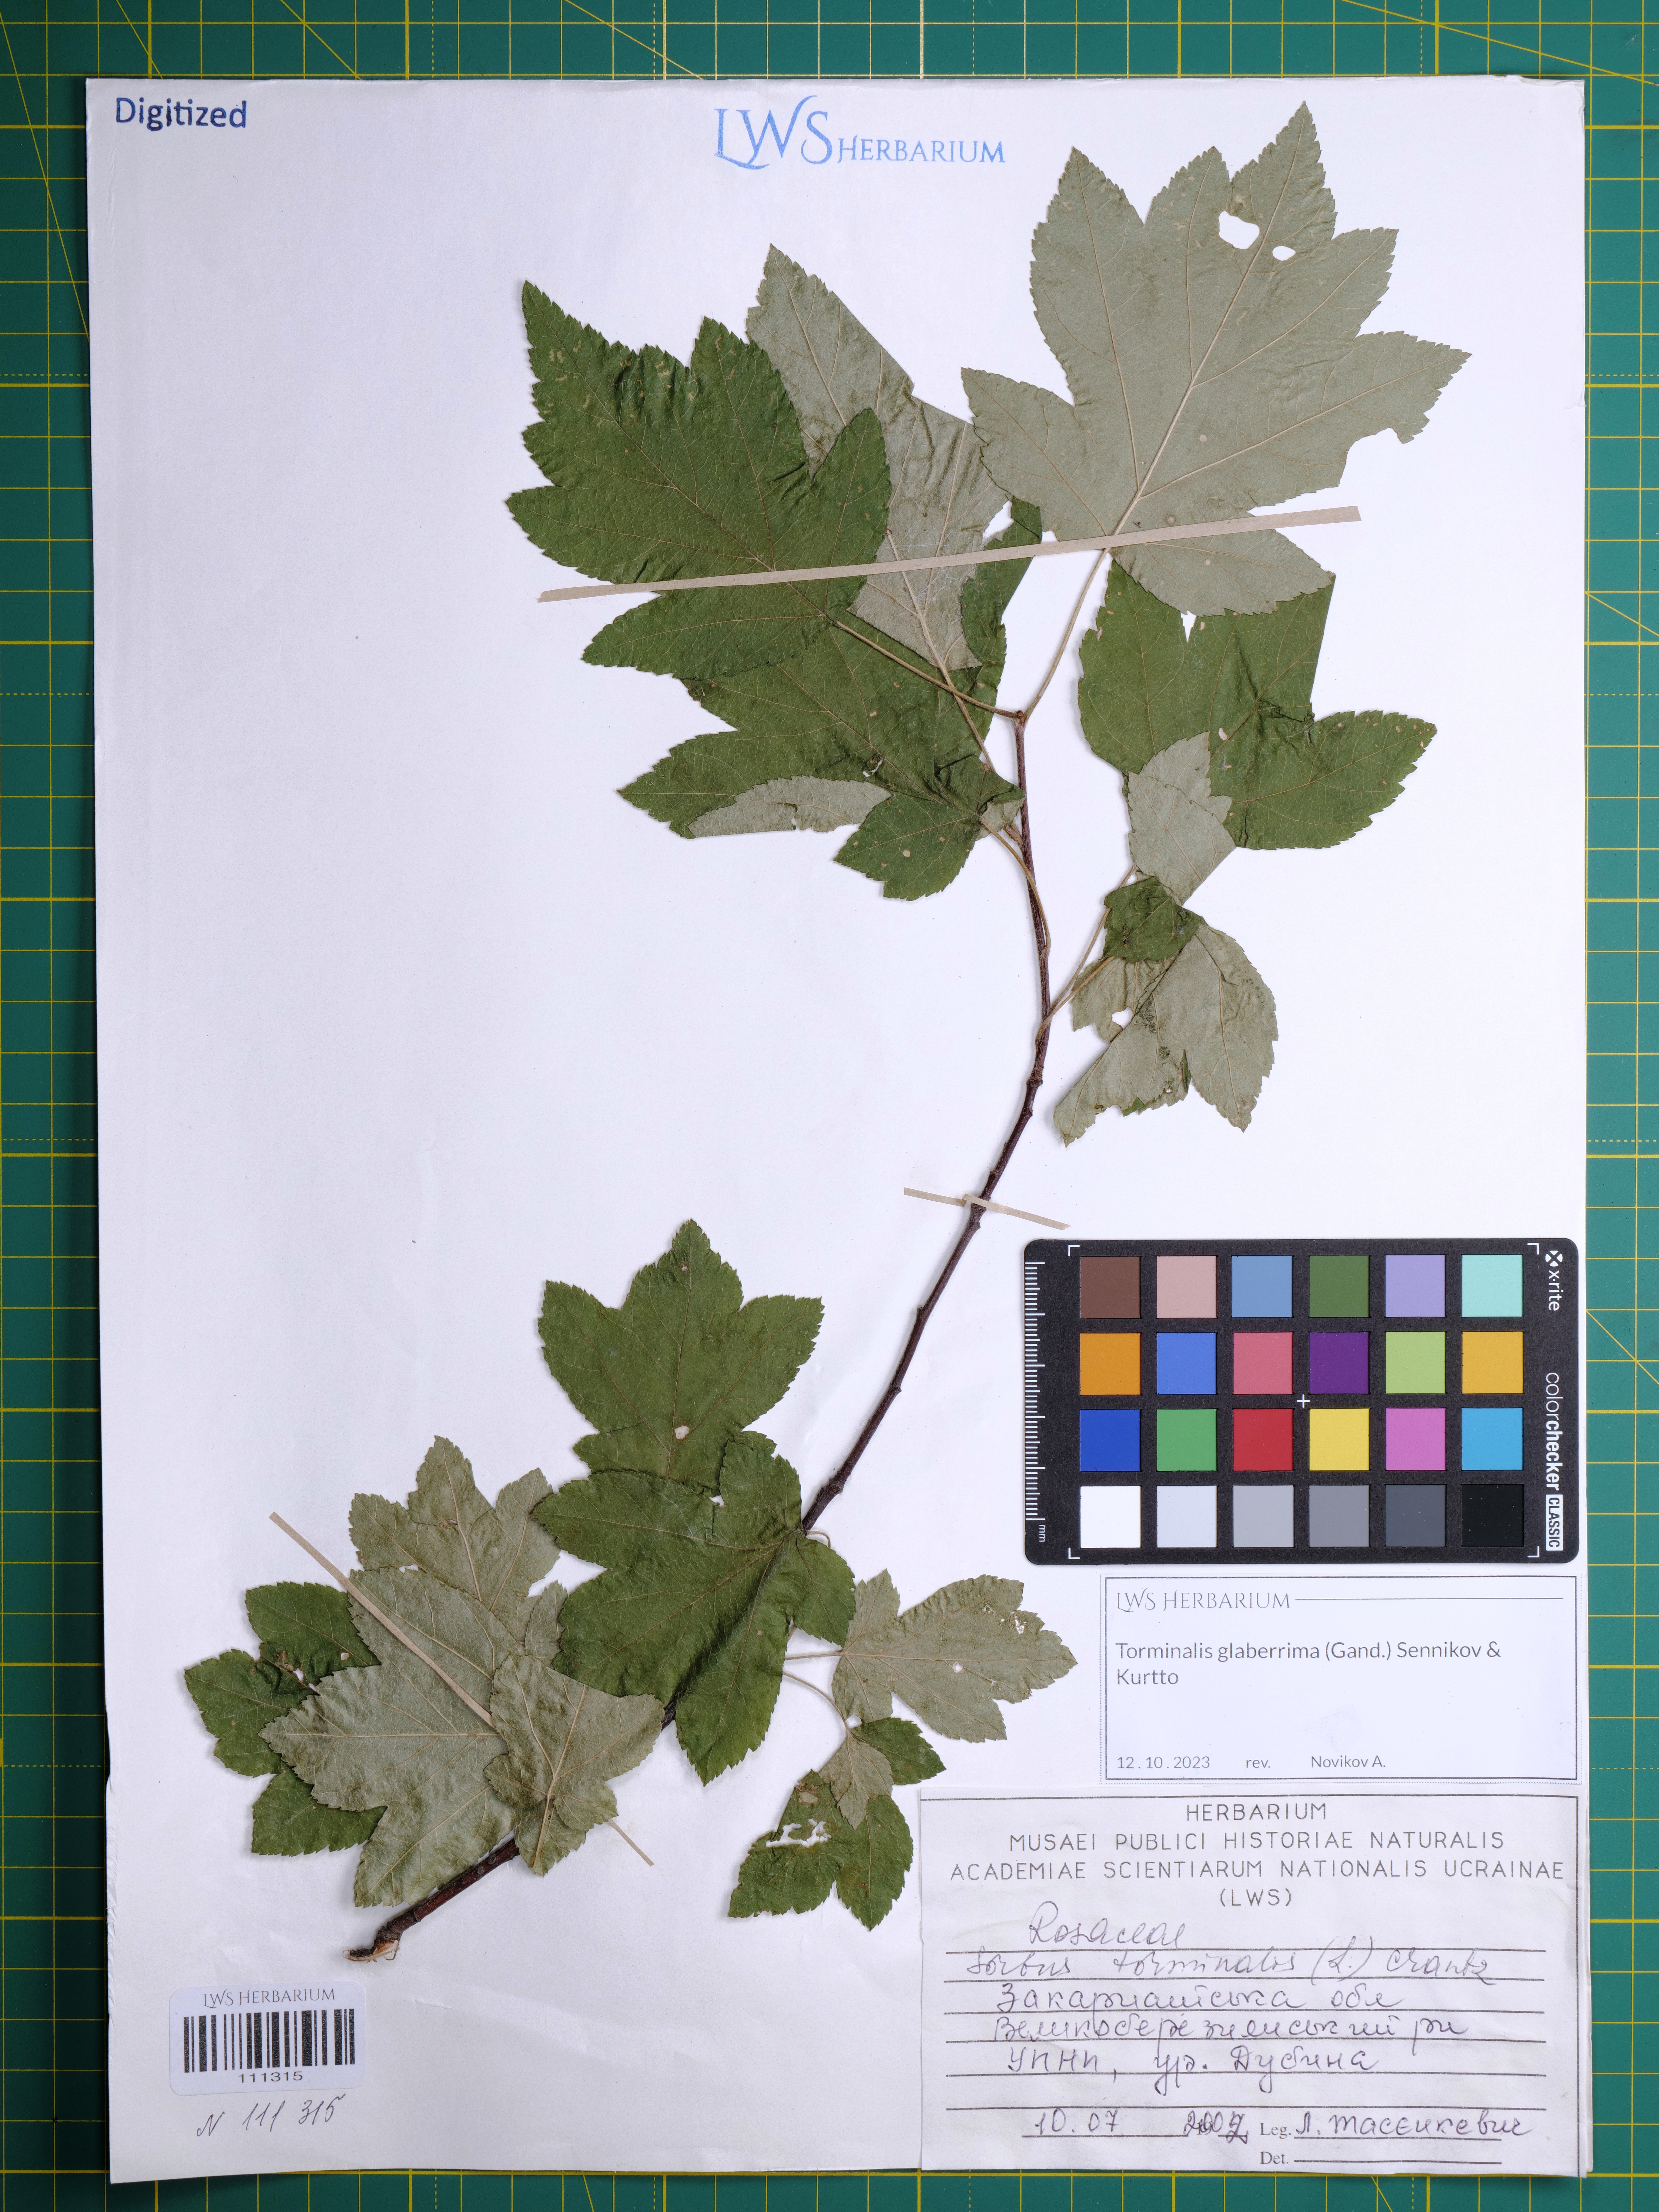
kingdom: Plantae
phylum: Tracheophyta
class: Magnoliopsida
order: Rosales
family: Rosaceae
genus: Torminalis
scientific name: Torminalis glaberrima
